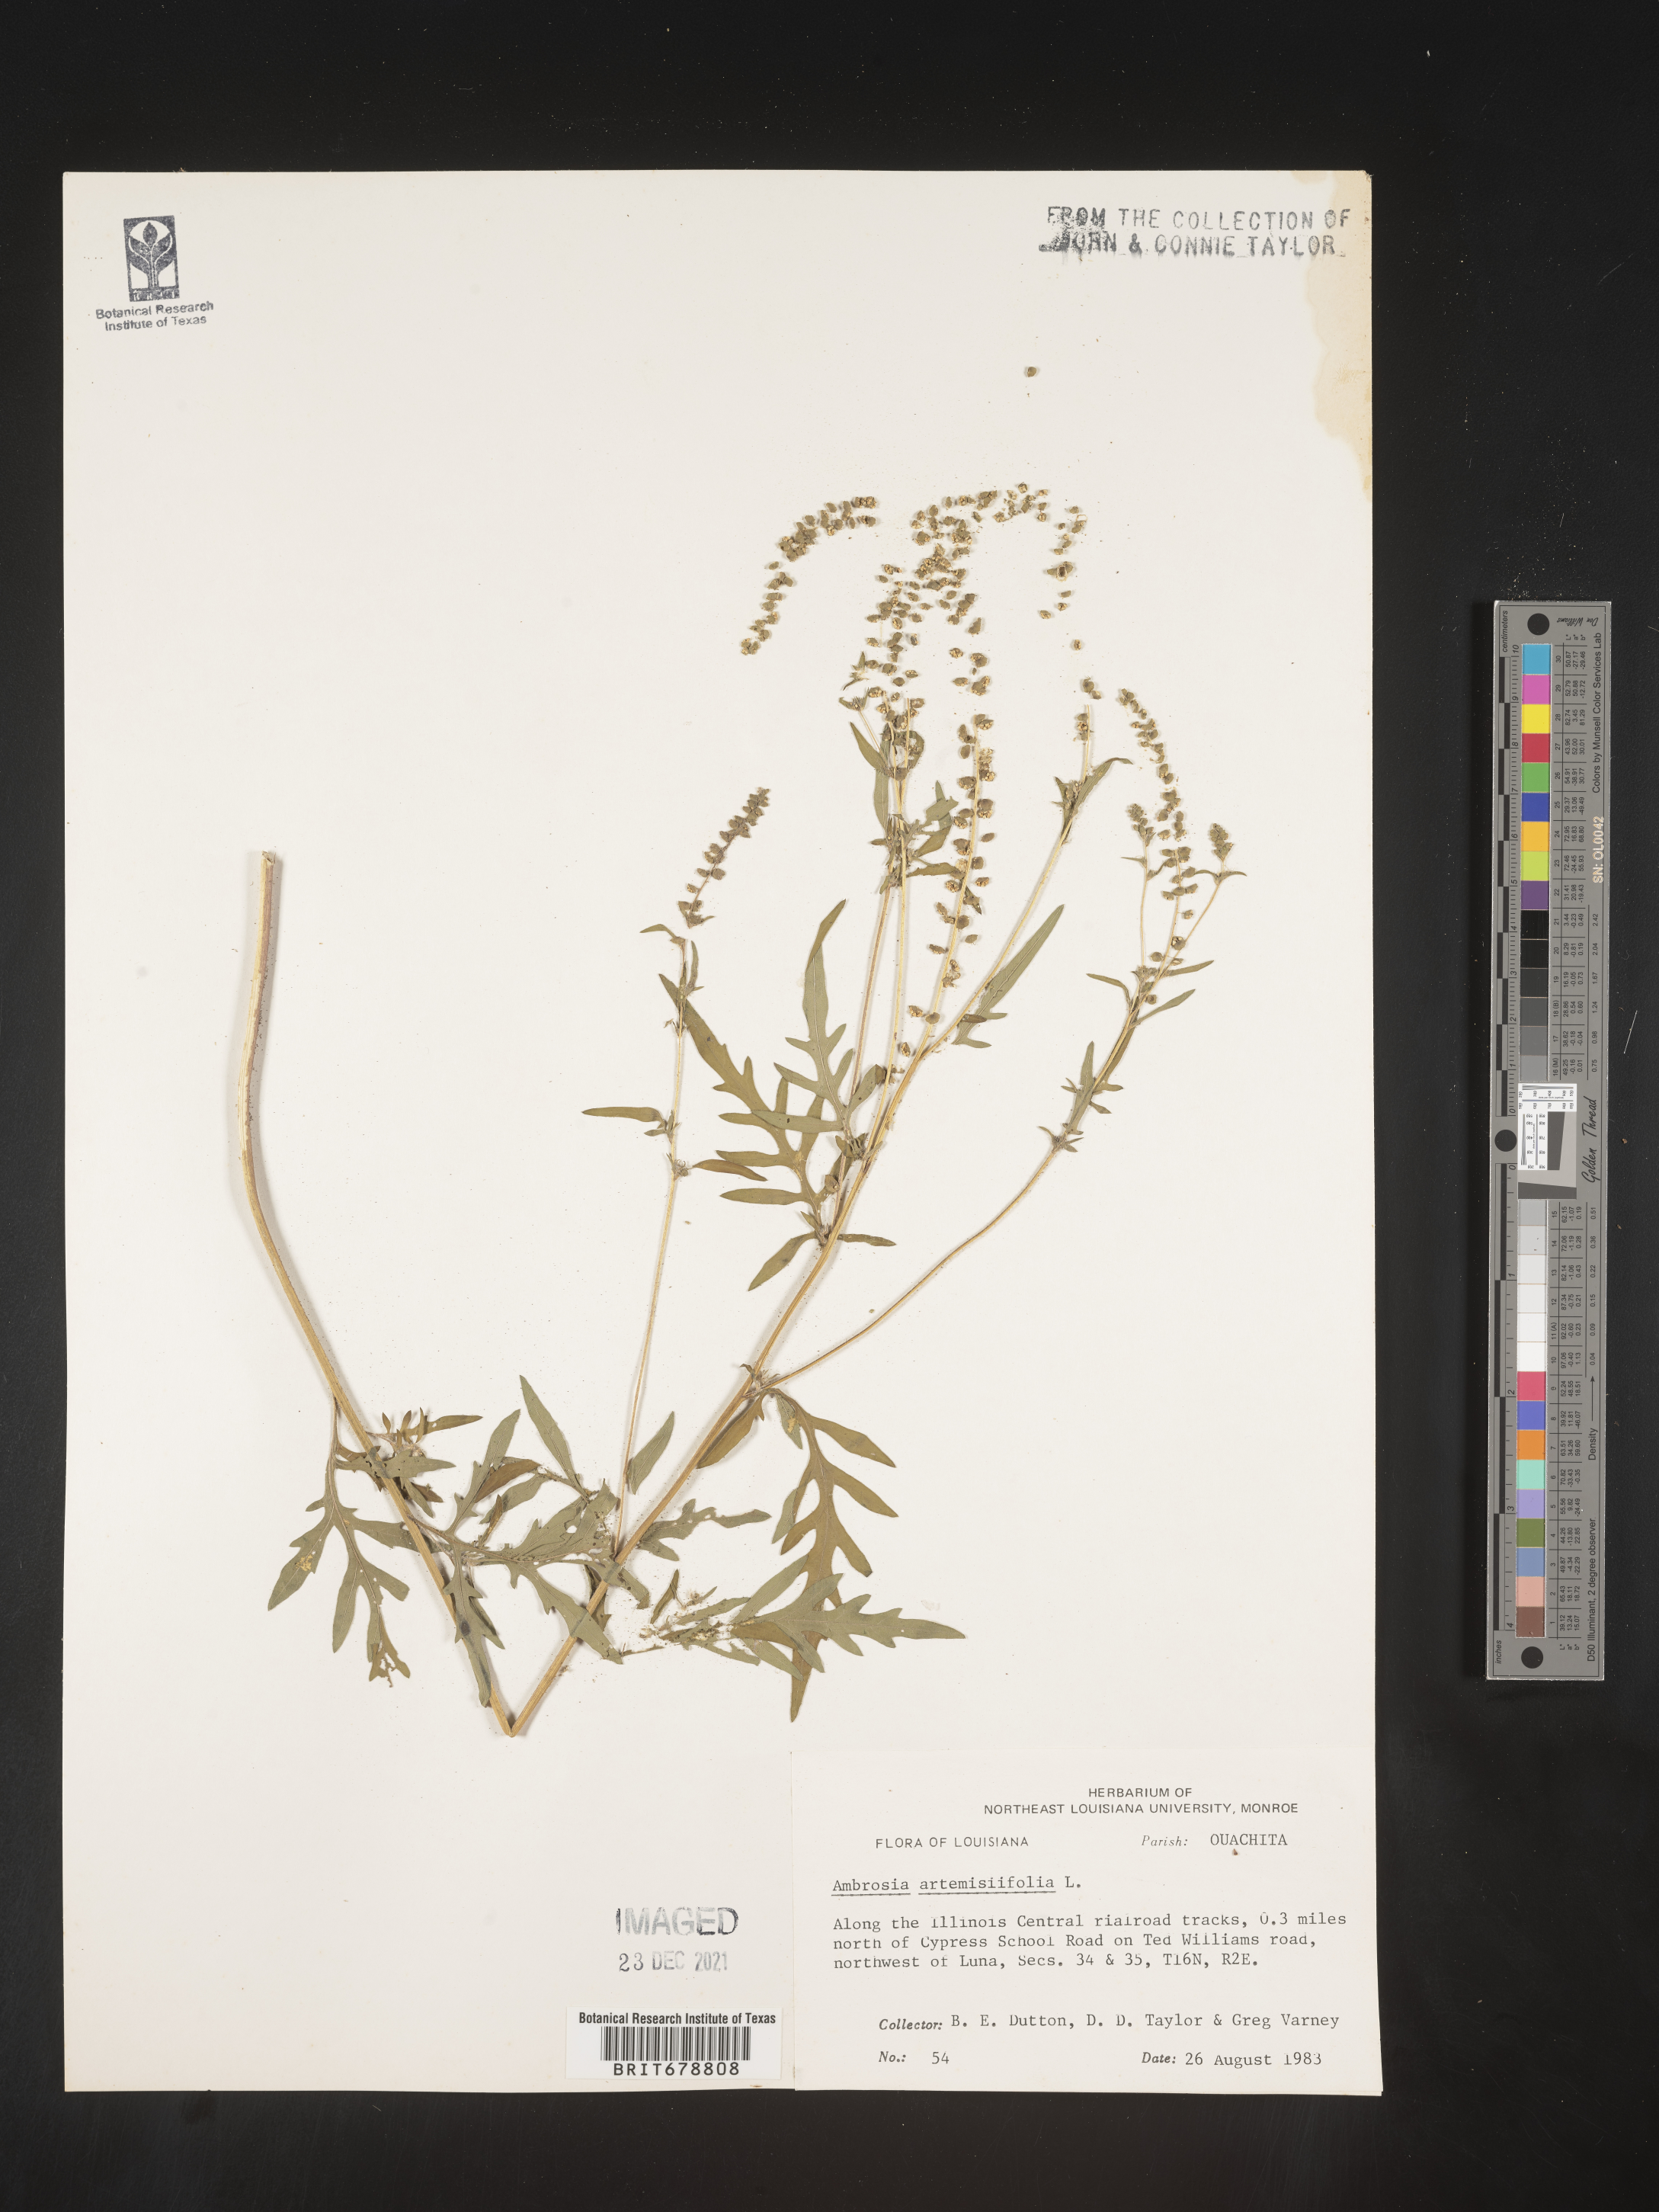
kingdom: Plantae
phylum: Tracheophyta
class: Magnoliopsida
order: Asterales
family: Asteraceae
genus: Ambrosia
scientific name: Ambrosia artemisiifolia
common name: Annual ragweed
